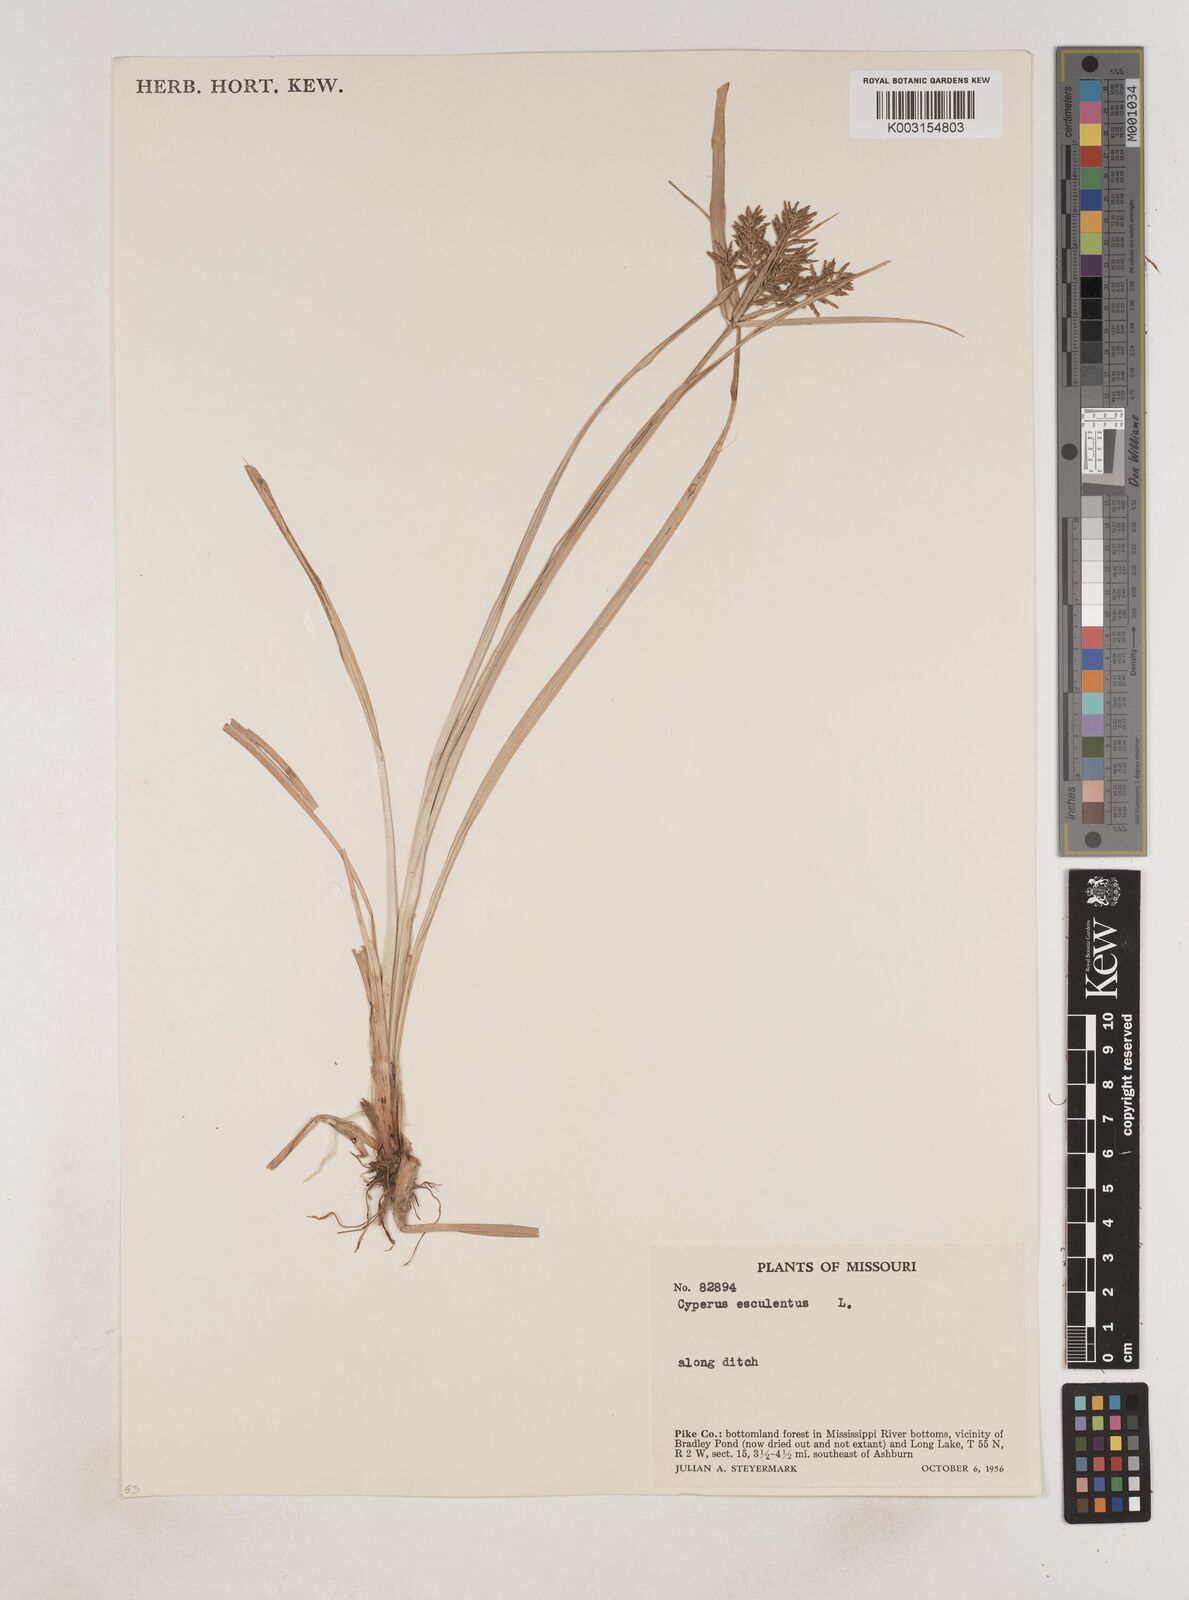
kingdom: Plantae
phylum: Tracheophyta
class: Liliopsida
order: Poales
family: Cyperaceae
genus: Cyperus
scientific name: Cyperus esculentus
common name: Yellow nutsedge
